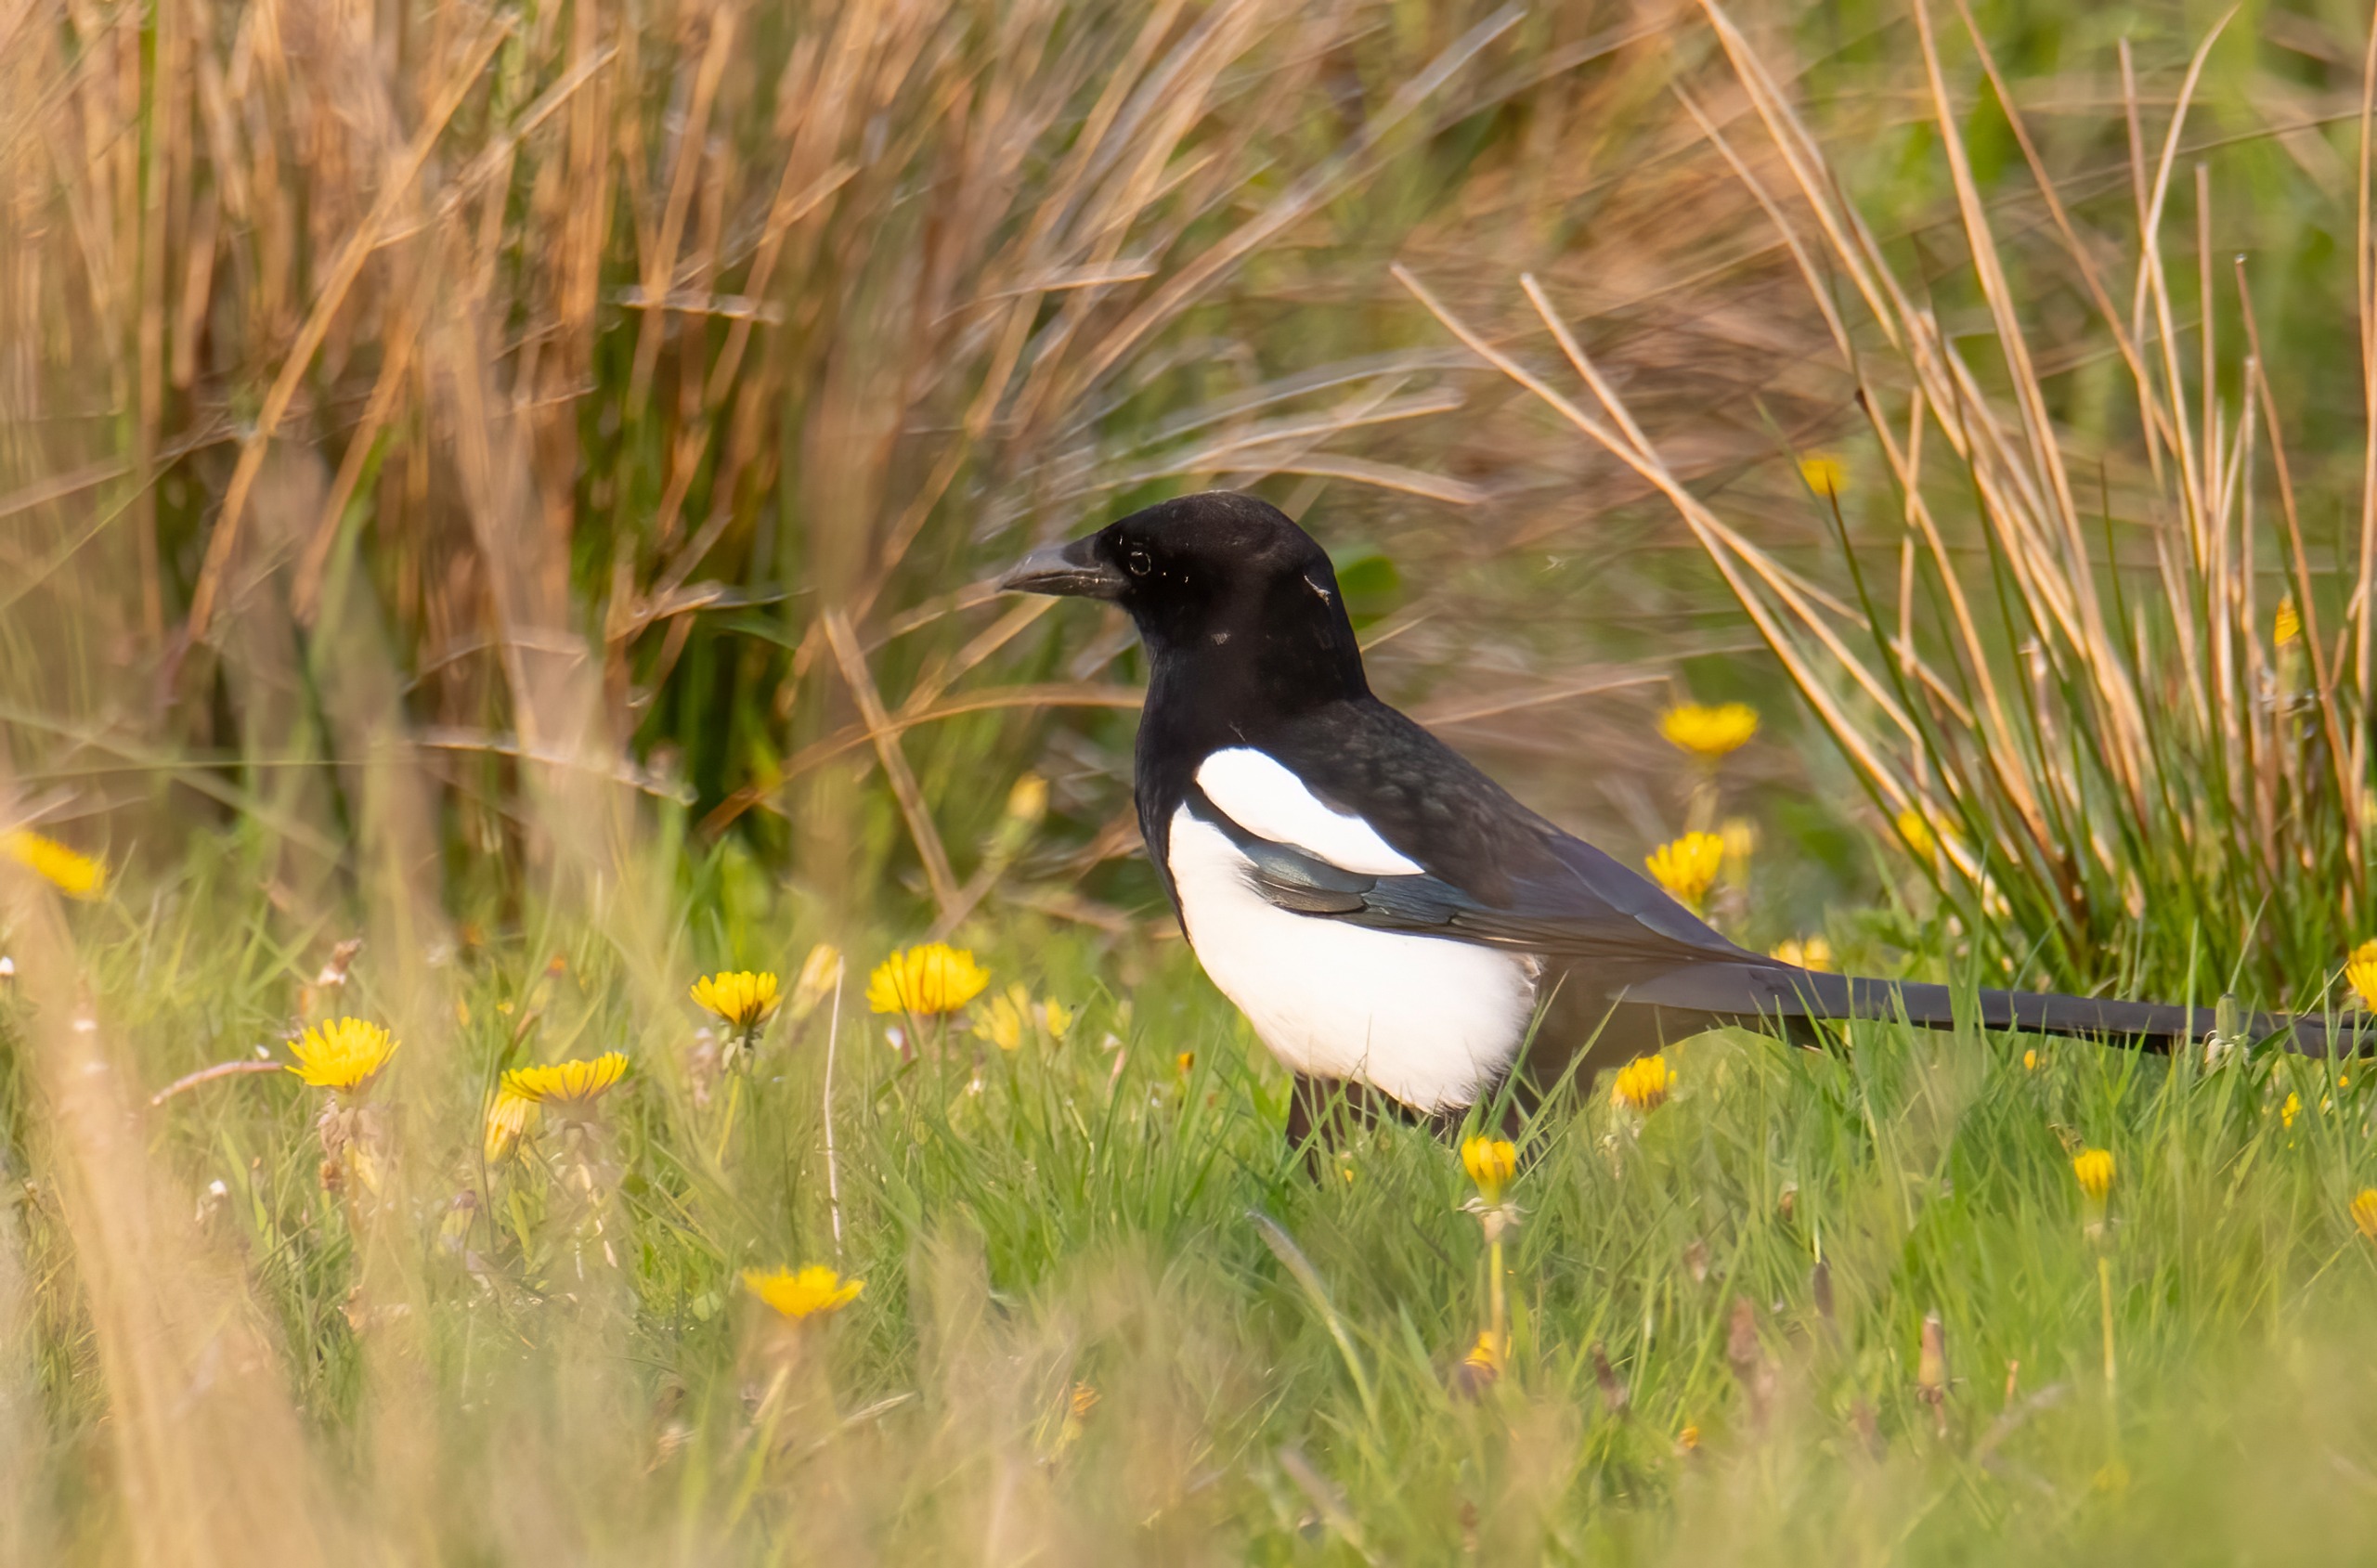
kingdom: Animalia
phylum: Chordata
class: Aves
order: Passeriformes
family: Corvidae
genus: Pica
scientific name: Pica pica
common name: Husskade
